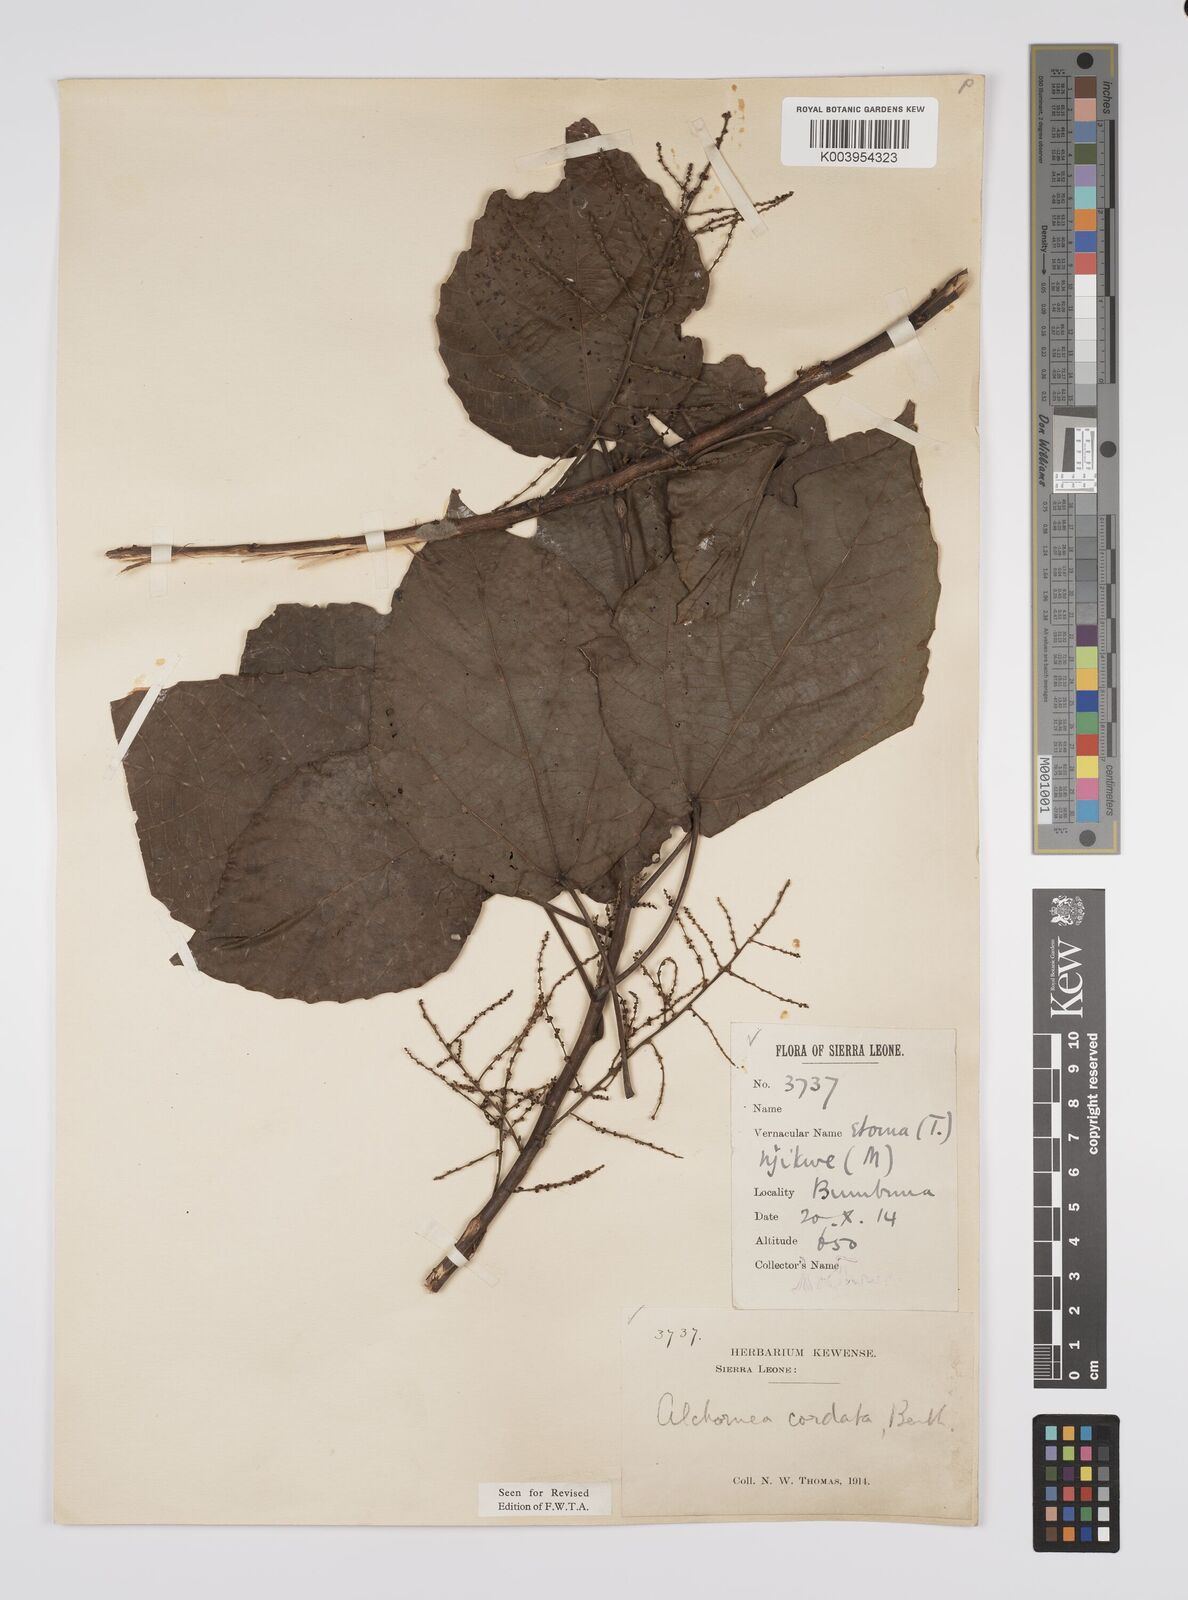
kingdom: Plantae
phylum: Tracheophyta
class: Magnoliopsida
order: Malpighiales
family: Euphorbiaceae
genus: Alchornea
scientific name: Alchornea cordifolia
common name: Christmasbush
